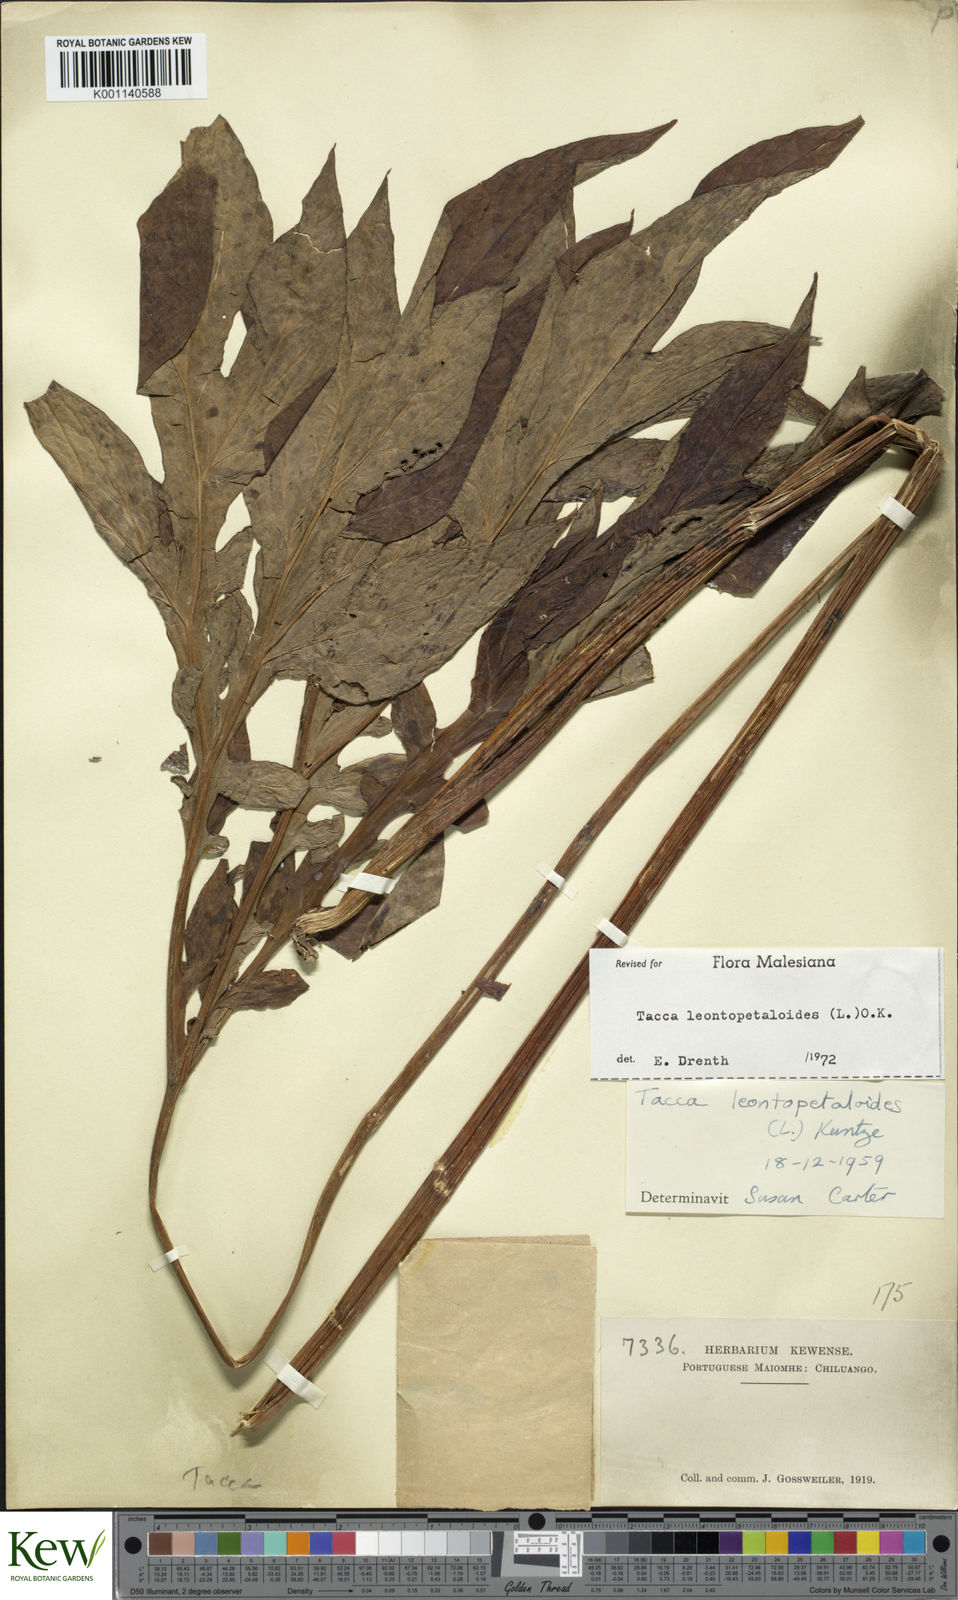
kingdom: Plantae
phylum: Tracheophyta
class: Liliopsida
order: Dioscoreales
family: Dioscoreaceae
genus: Tacca
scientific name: Tacca leontopetaloides
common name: Arrowroot
